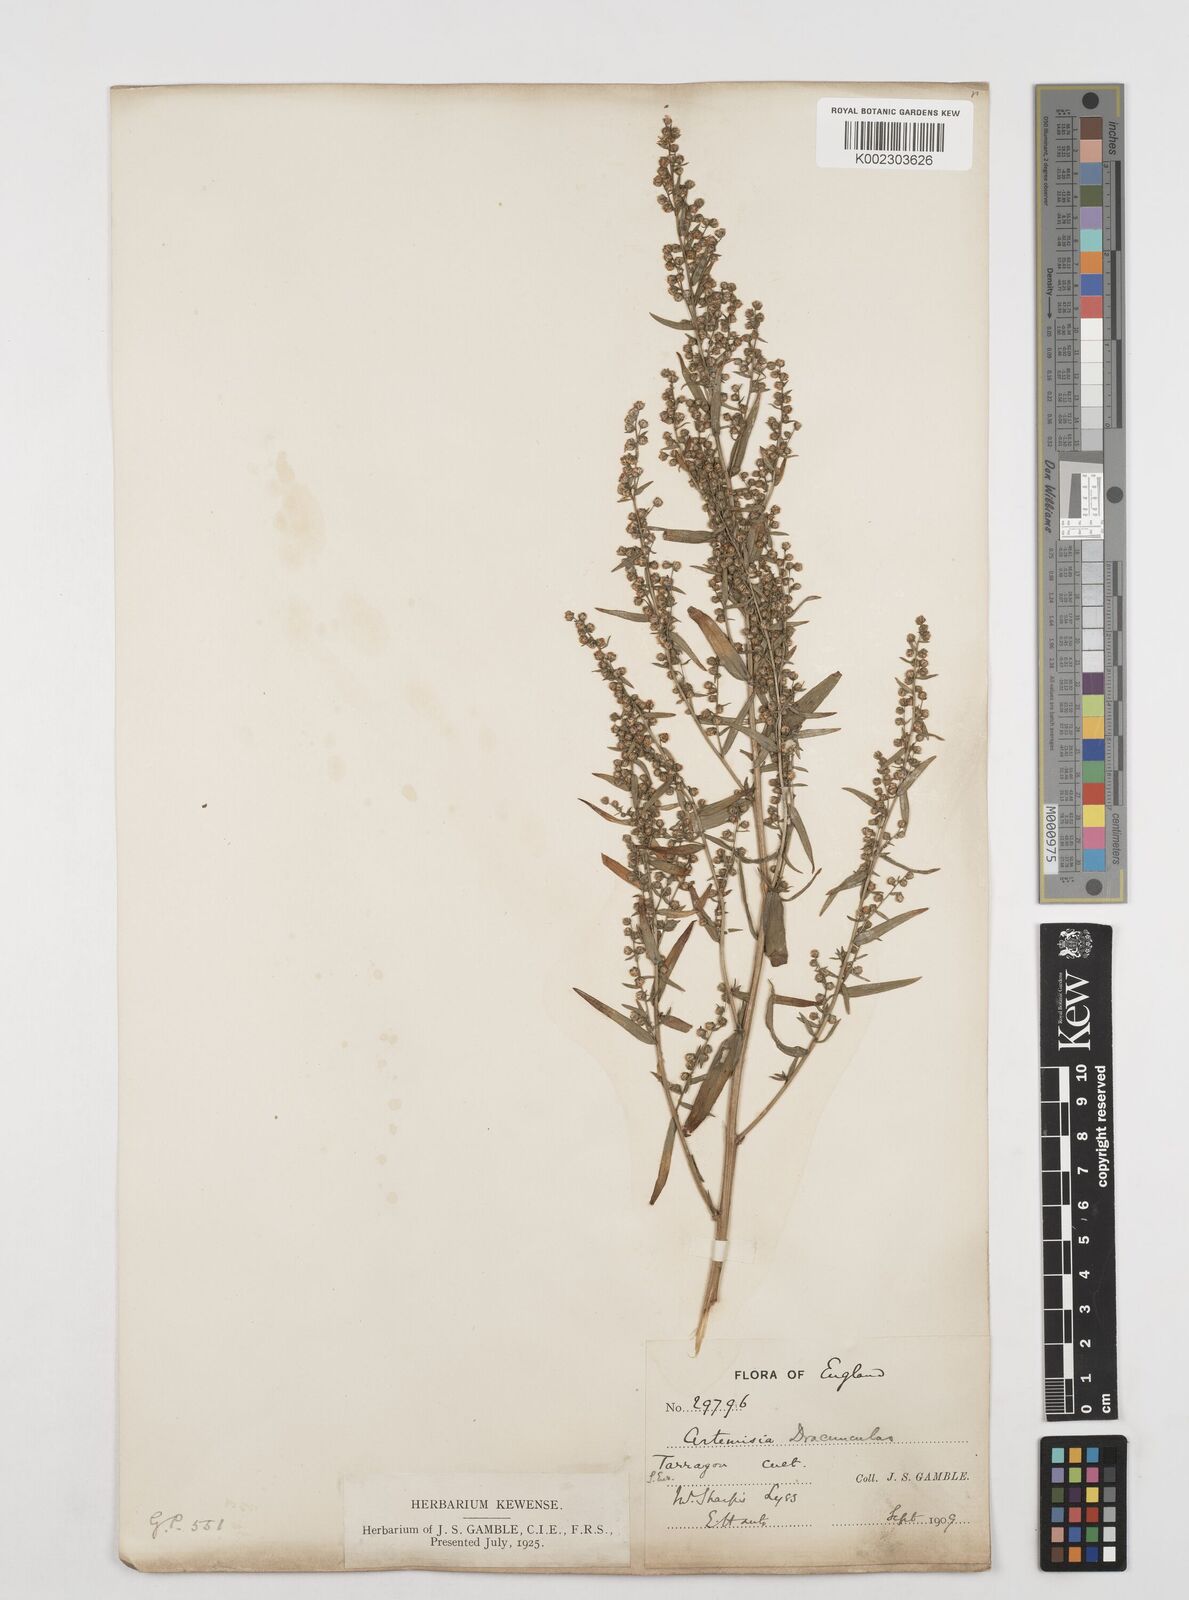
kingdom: Plantae
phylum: Tracheophyta
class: Magnoliopsida
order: Asterales
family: Asteraceae
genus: Artemisia
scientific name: Artemisia dracunculus
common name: Tarragon
